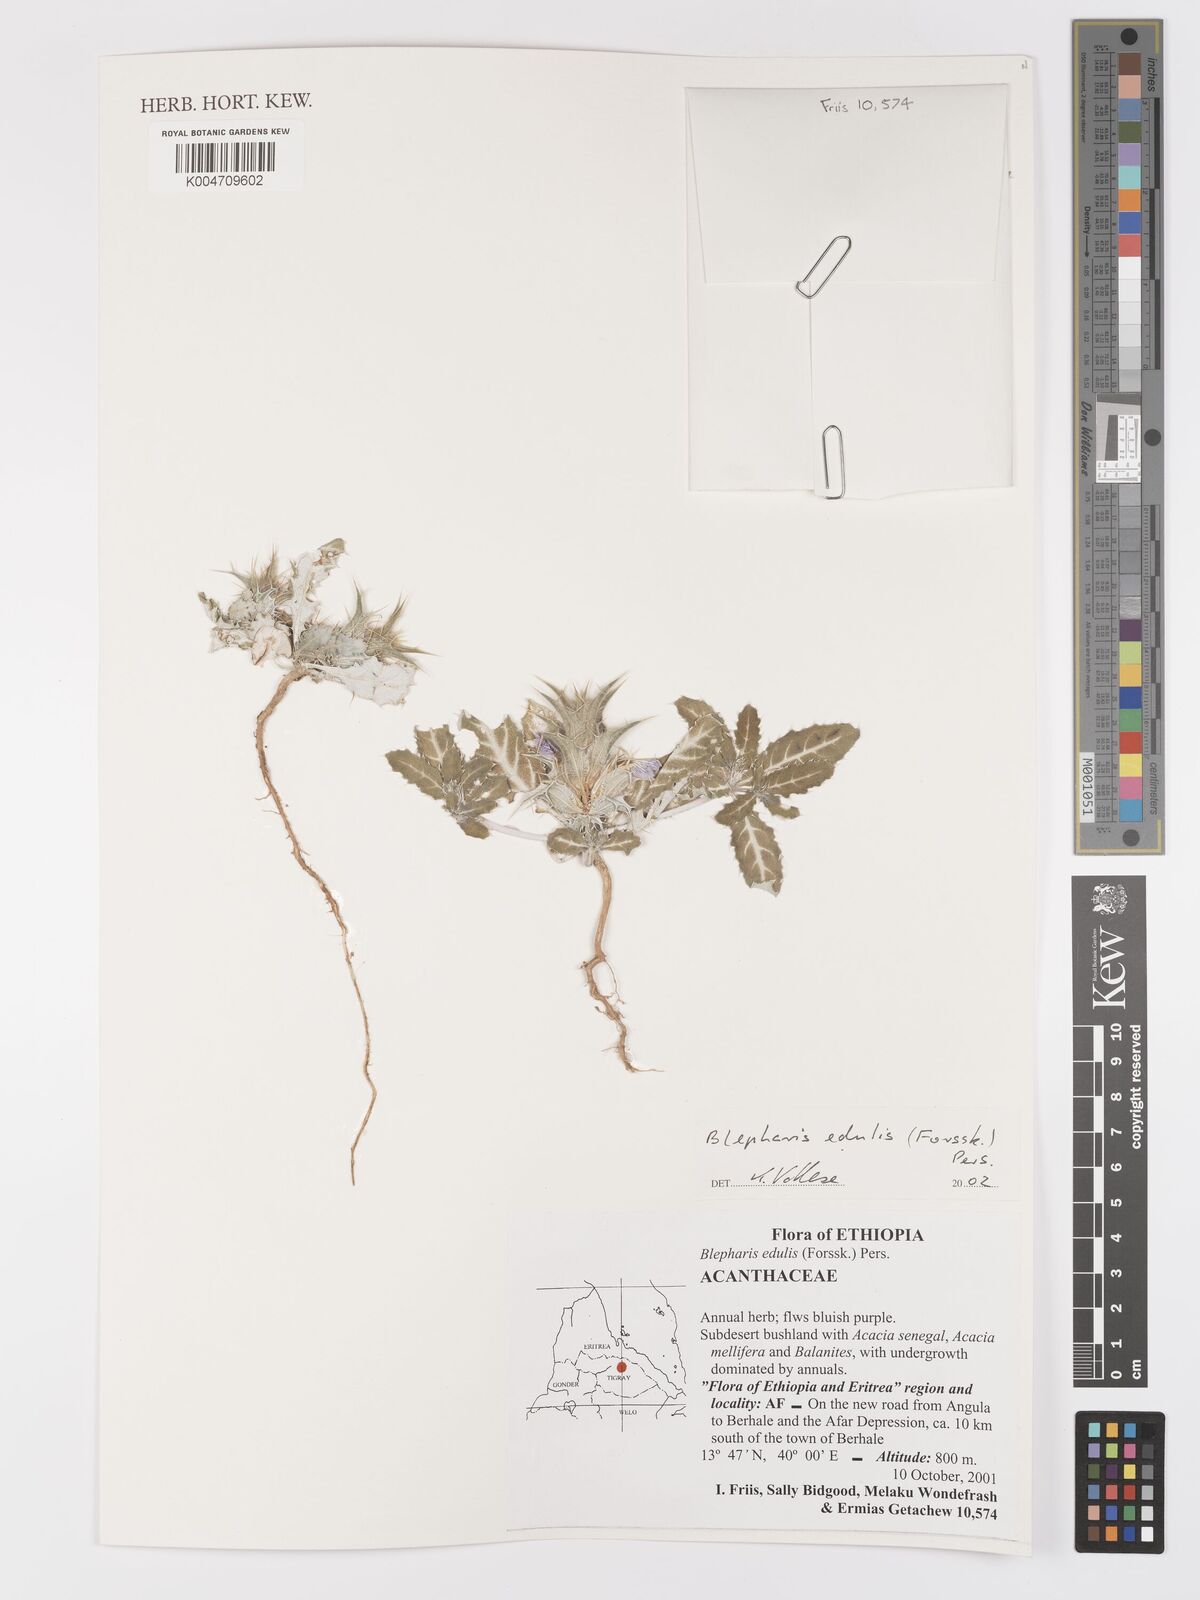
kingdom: Plantae
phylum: Tracheophyta
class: Magnoliopsida
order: Lamiales
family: Acanthaceae
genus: Blepharis
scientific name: Blepharis edulis
